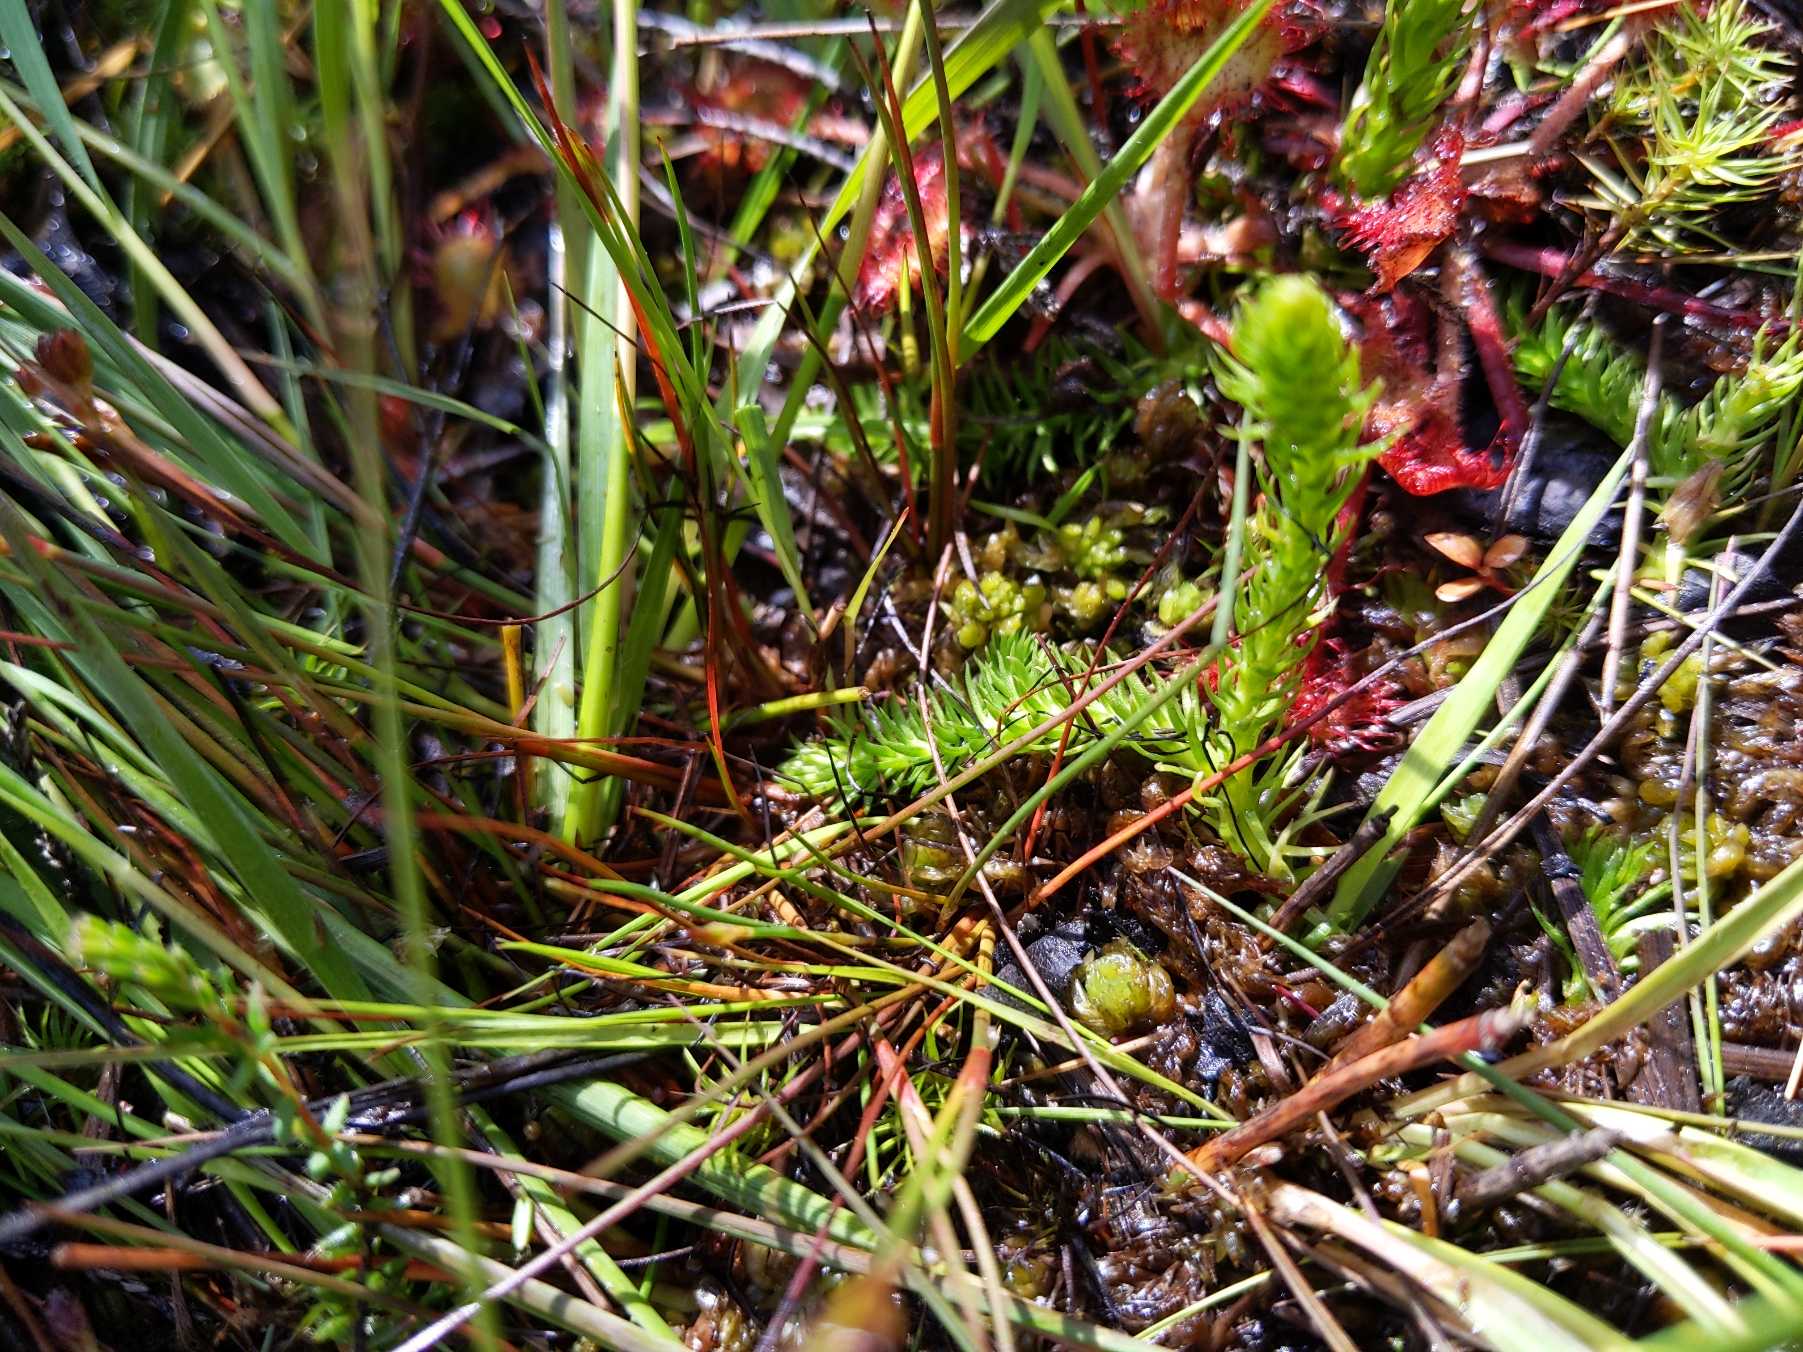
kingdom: Plantae
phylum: Tracheophyta
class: Lycopodiopsida
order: Lycopodiales
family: Lycopodiaceae
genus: Lycopodiella
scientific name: Lycopodiella inundata
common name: Liden ulvefod
